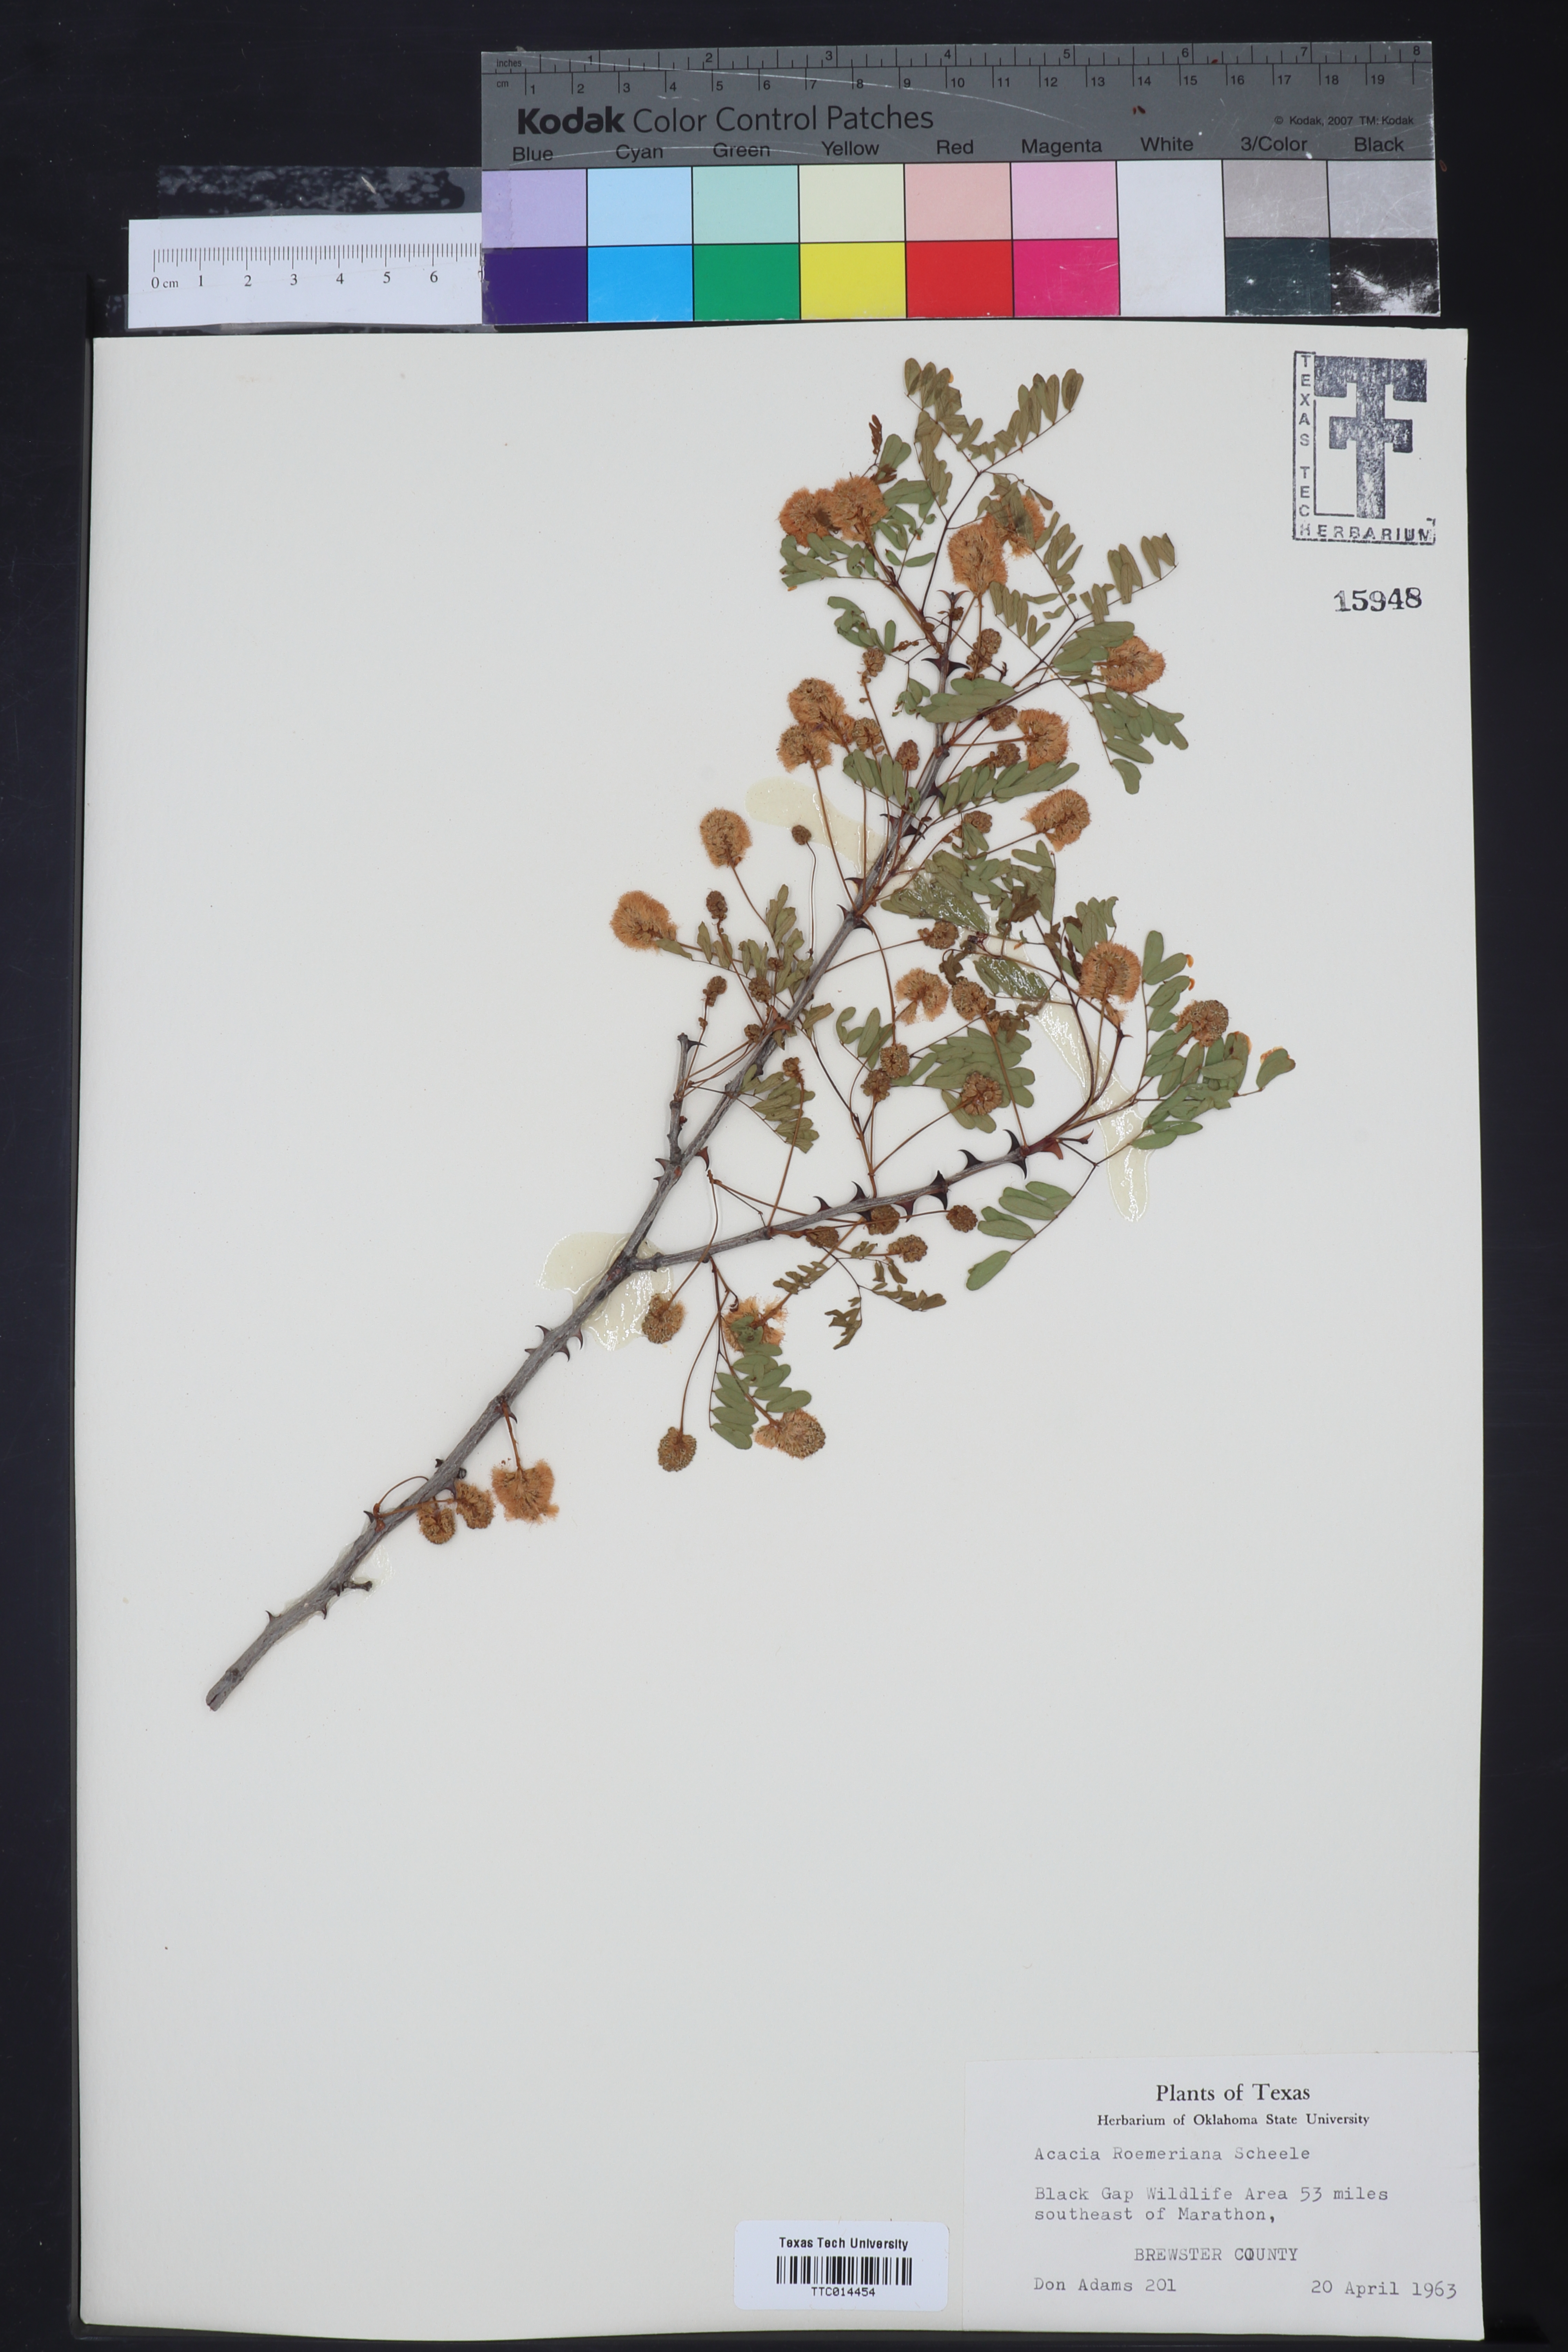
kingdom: Plantae
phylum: Tracheophyta
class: Magnoliopsida
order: Fabales
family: Fabaceae
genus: Senegalia
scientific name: Senegalia roemeriana
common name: Roemer's acacia
